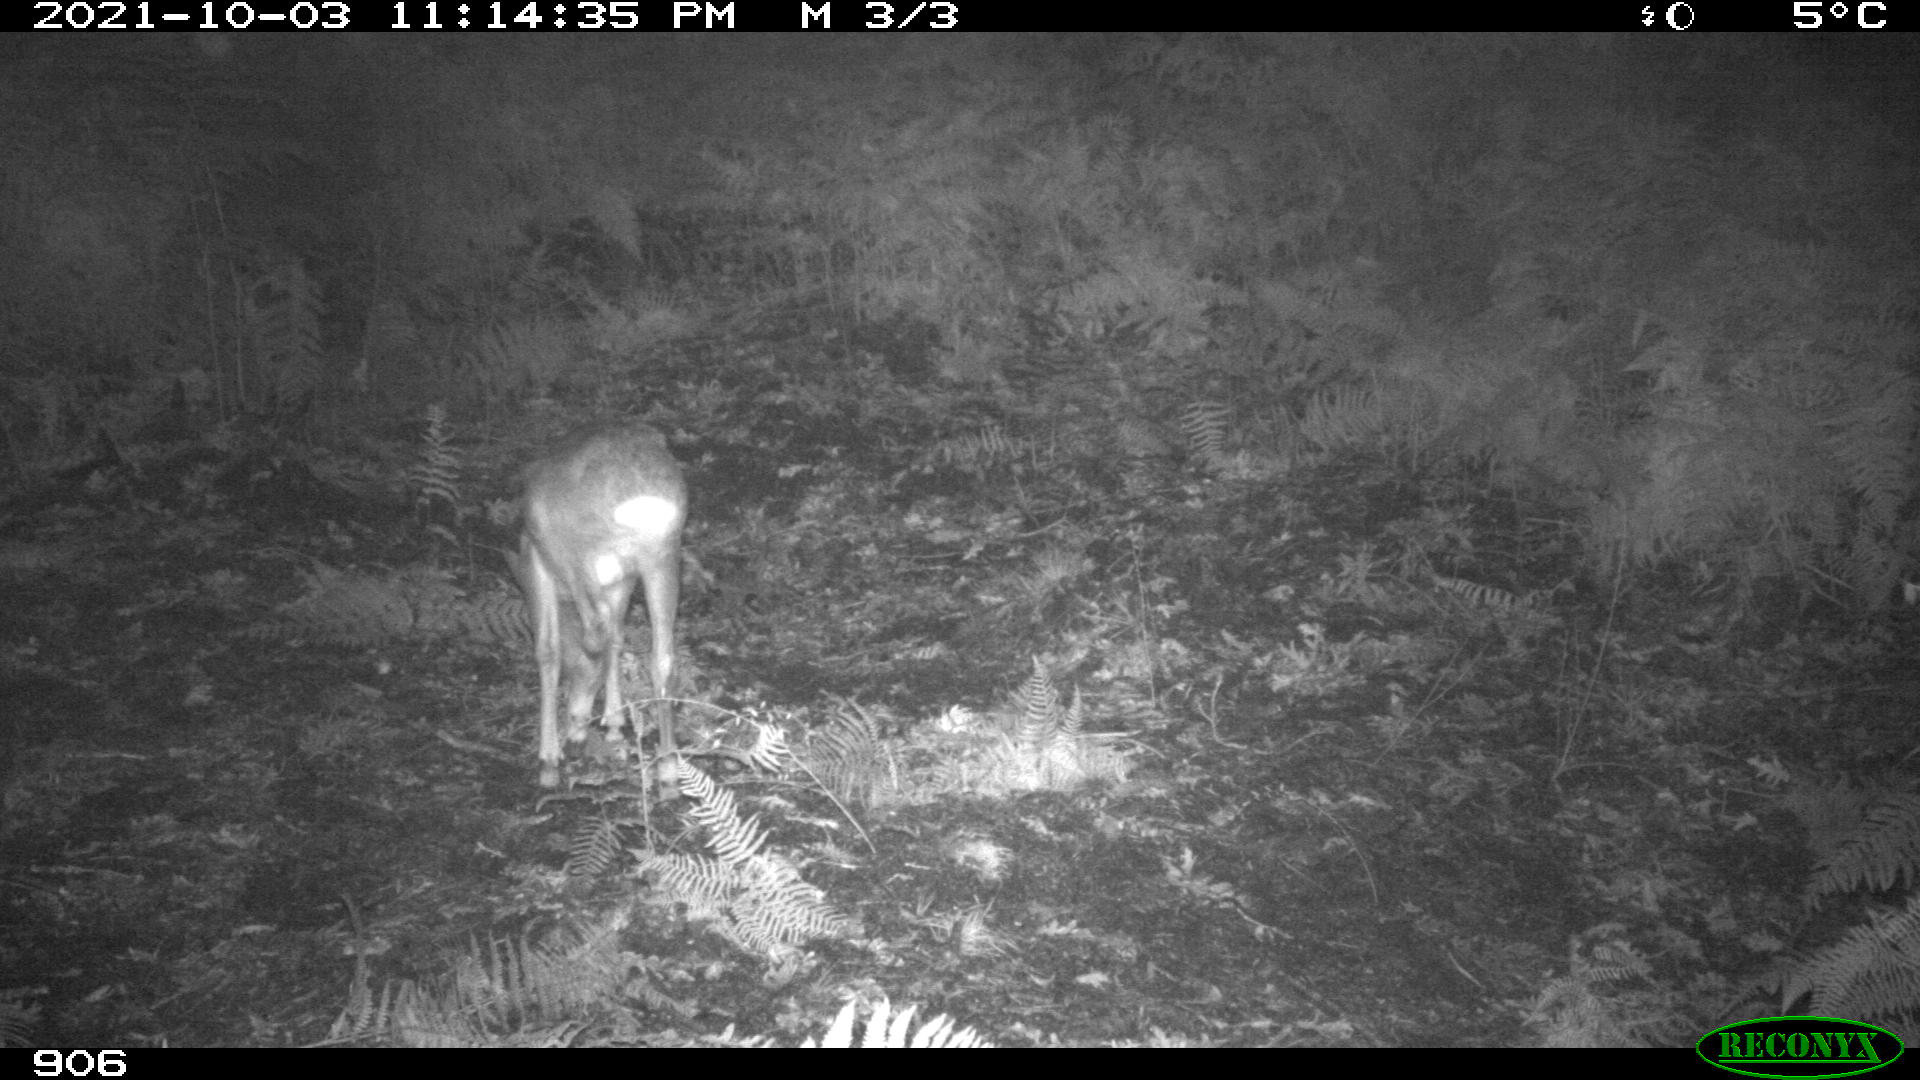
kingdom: Animalia
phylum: Chordata
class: Mammalia
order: Artiodactyla
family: Cervidae
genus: Capreolus
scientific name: Capreolus capreolus
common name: Western roe deer
